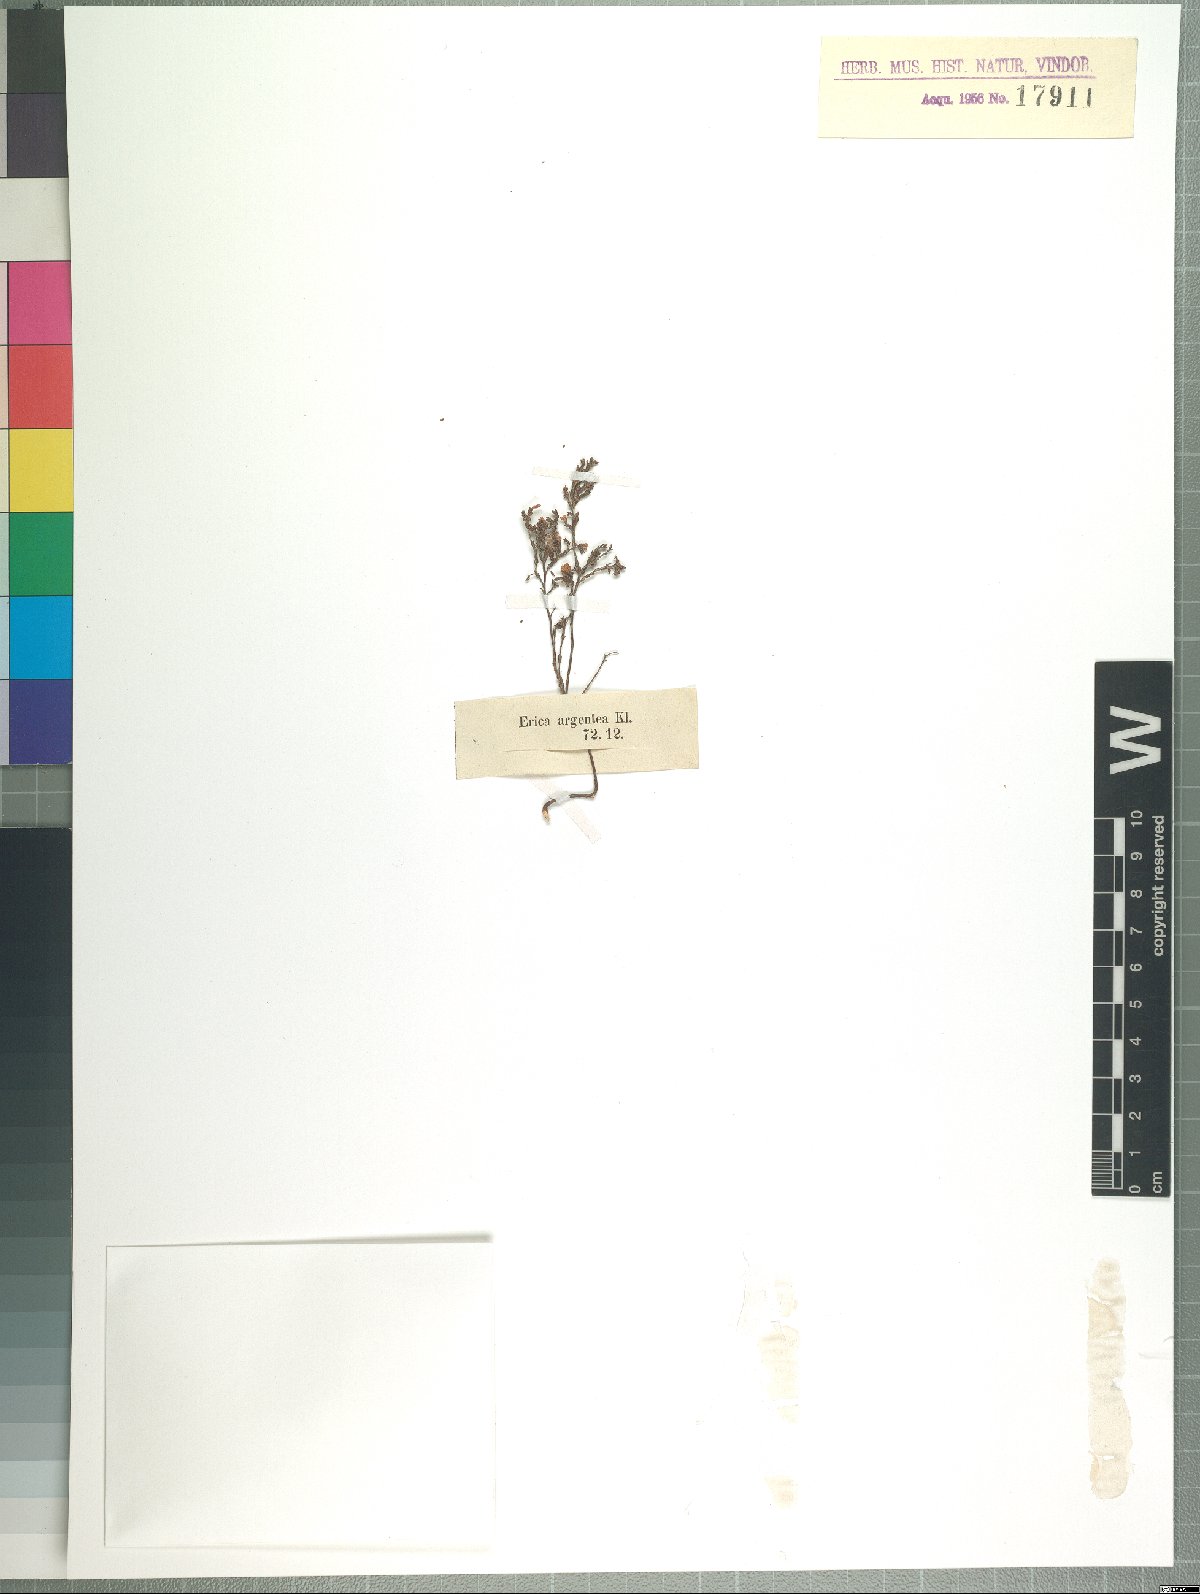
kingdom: Plantae
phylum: Tracheophyta
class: Magnoliopsida
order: Ericales
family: Ericaceae
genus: Erica
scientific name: Erica argentea
